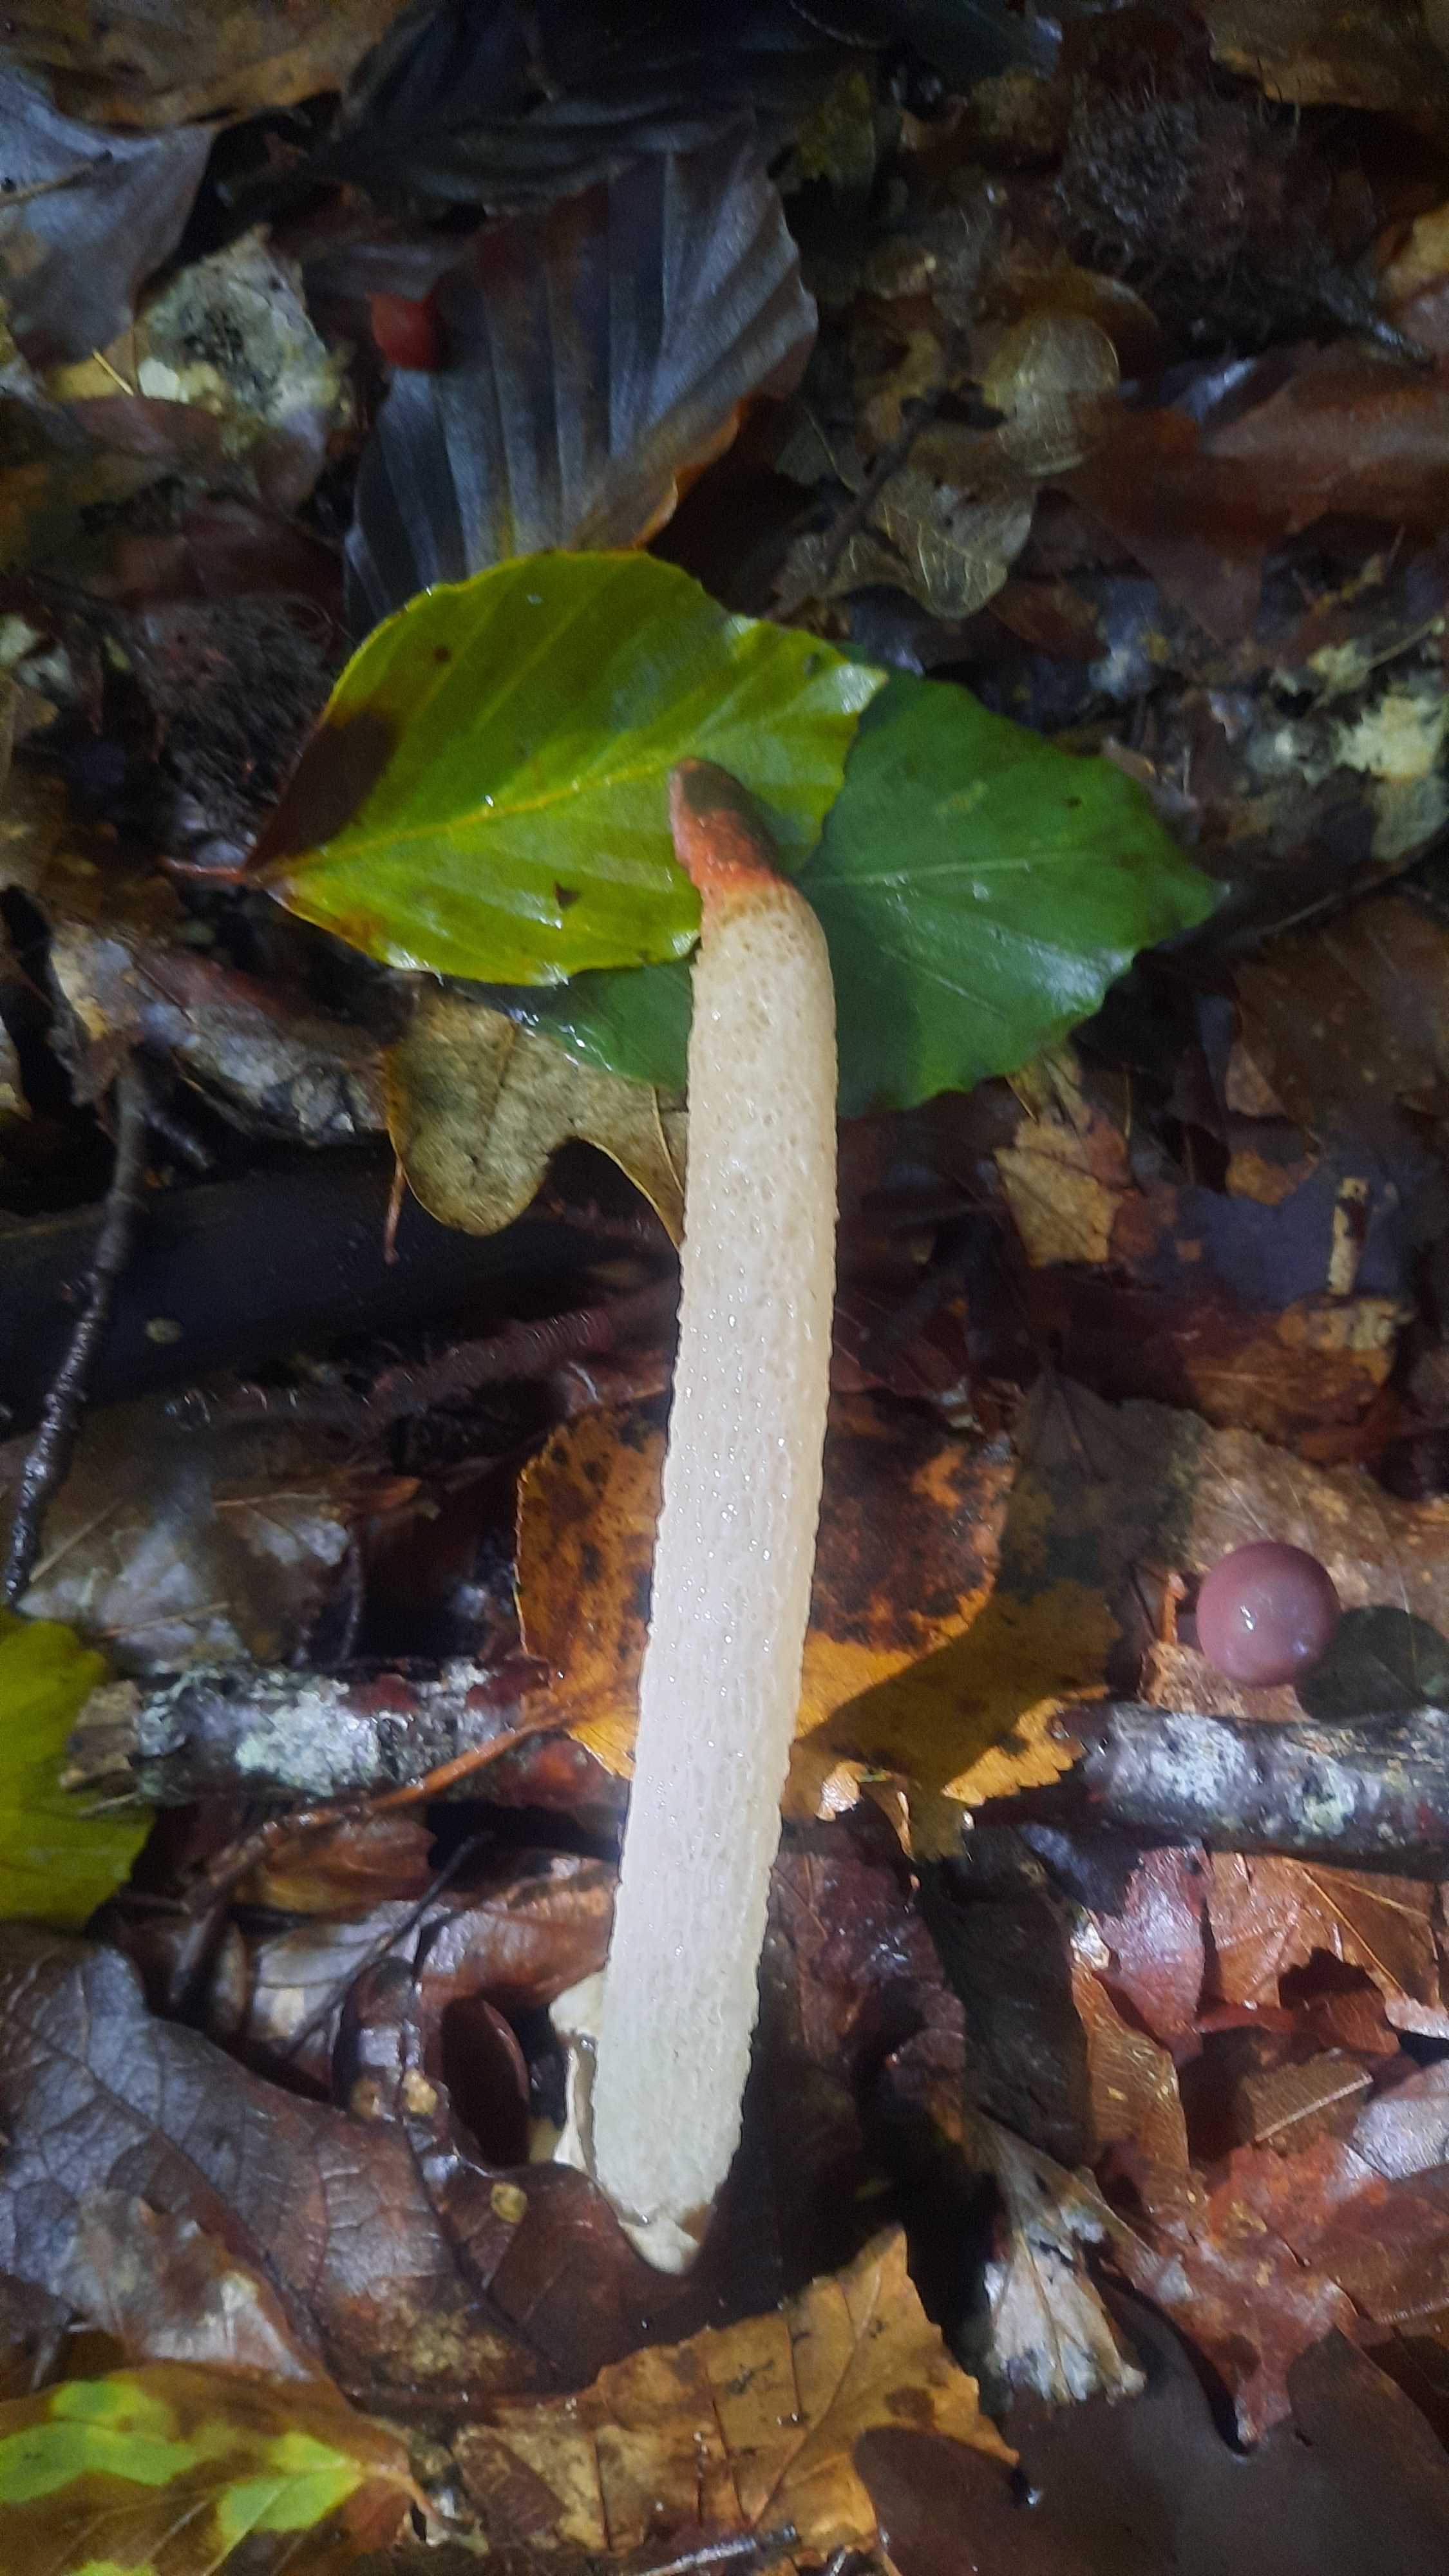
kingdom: Fungi
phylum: Basidiomycota
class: Agaricomycetes
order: Phallales
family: Phallaceae
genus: Mutinus
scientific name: Mutinus caninus
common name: hunde-stinksvamp
